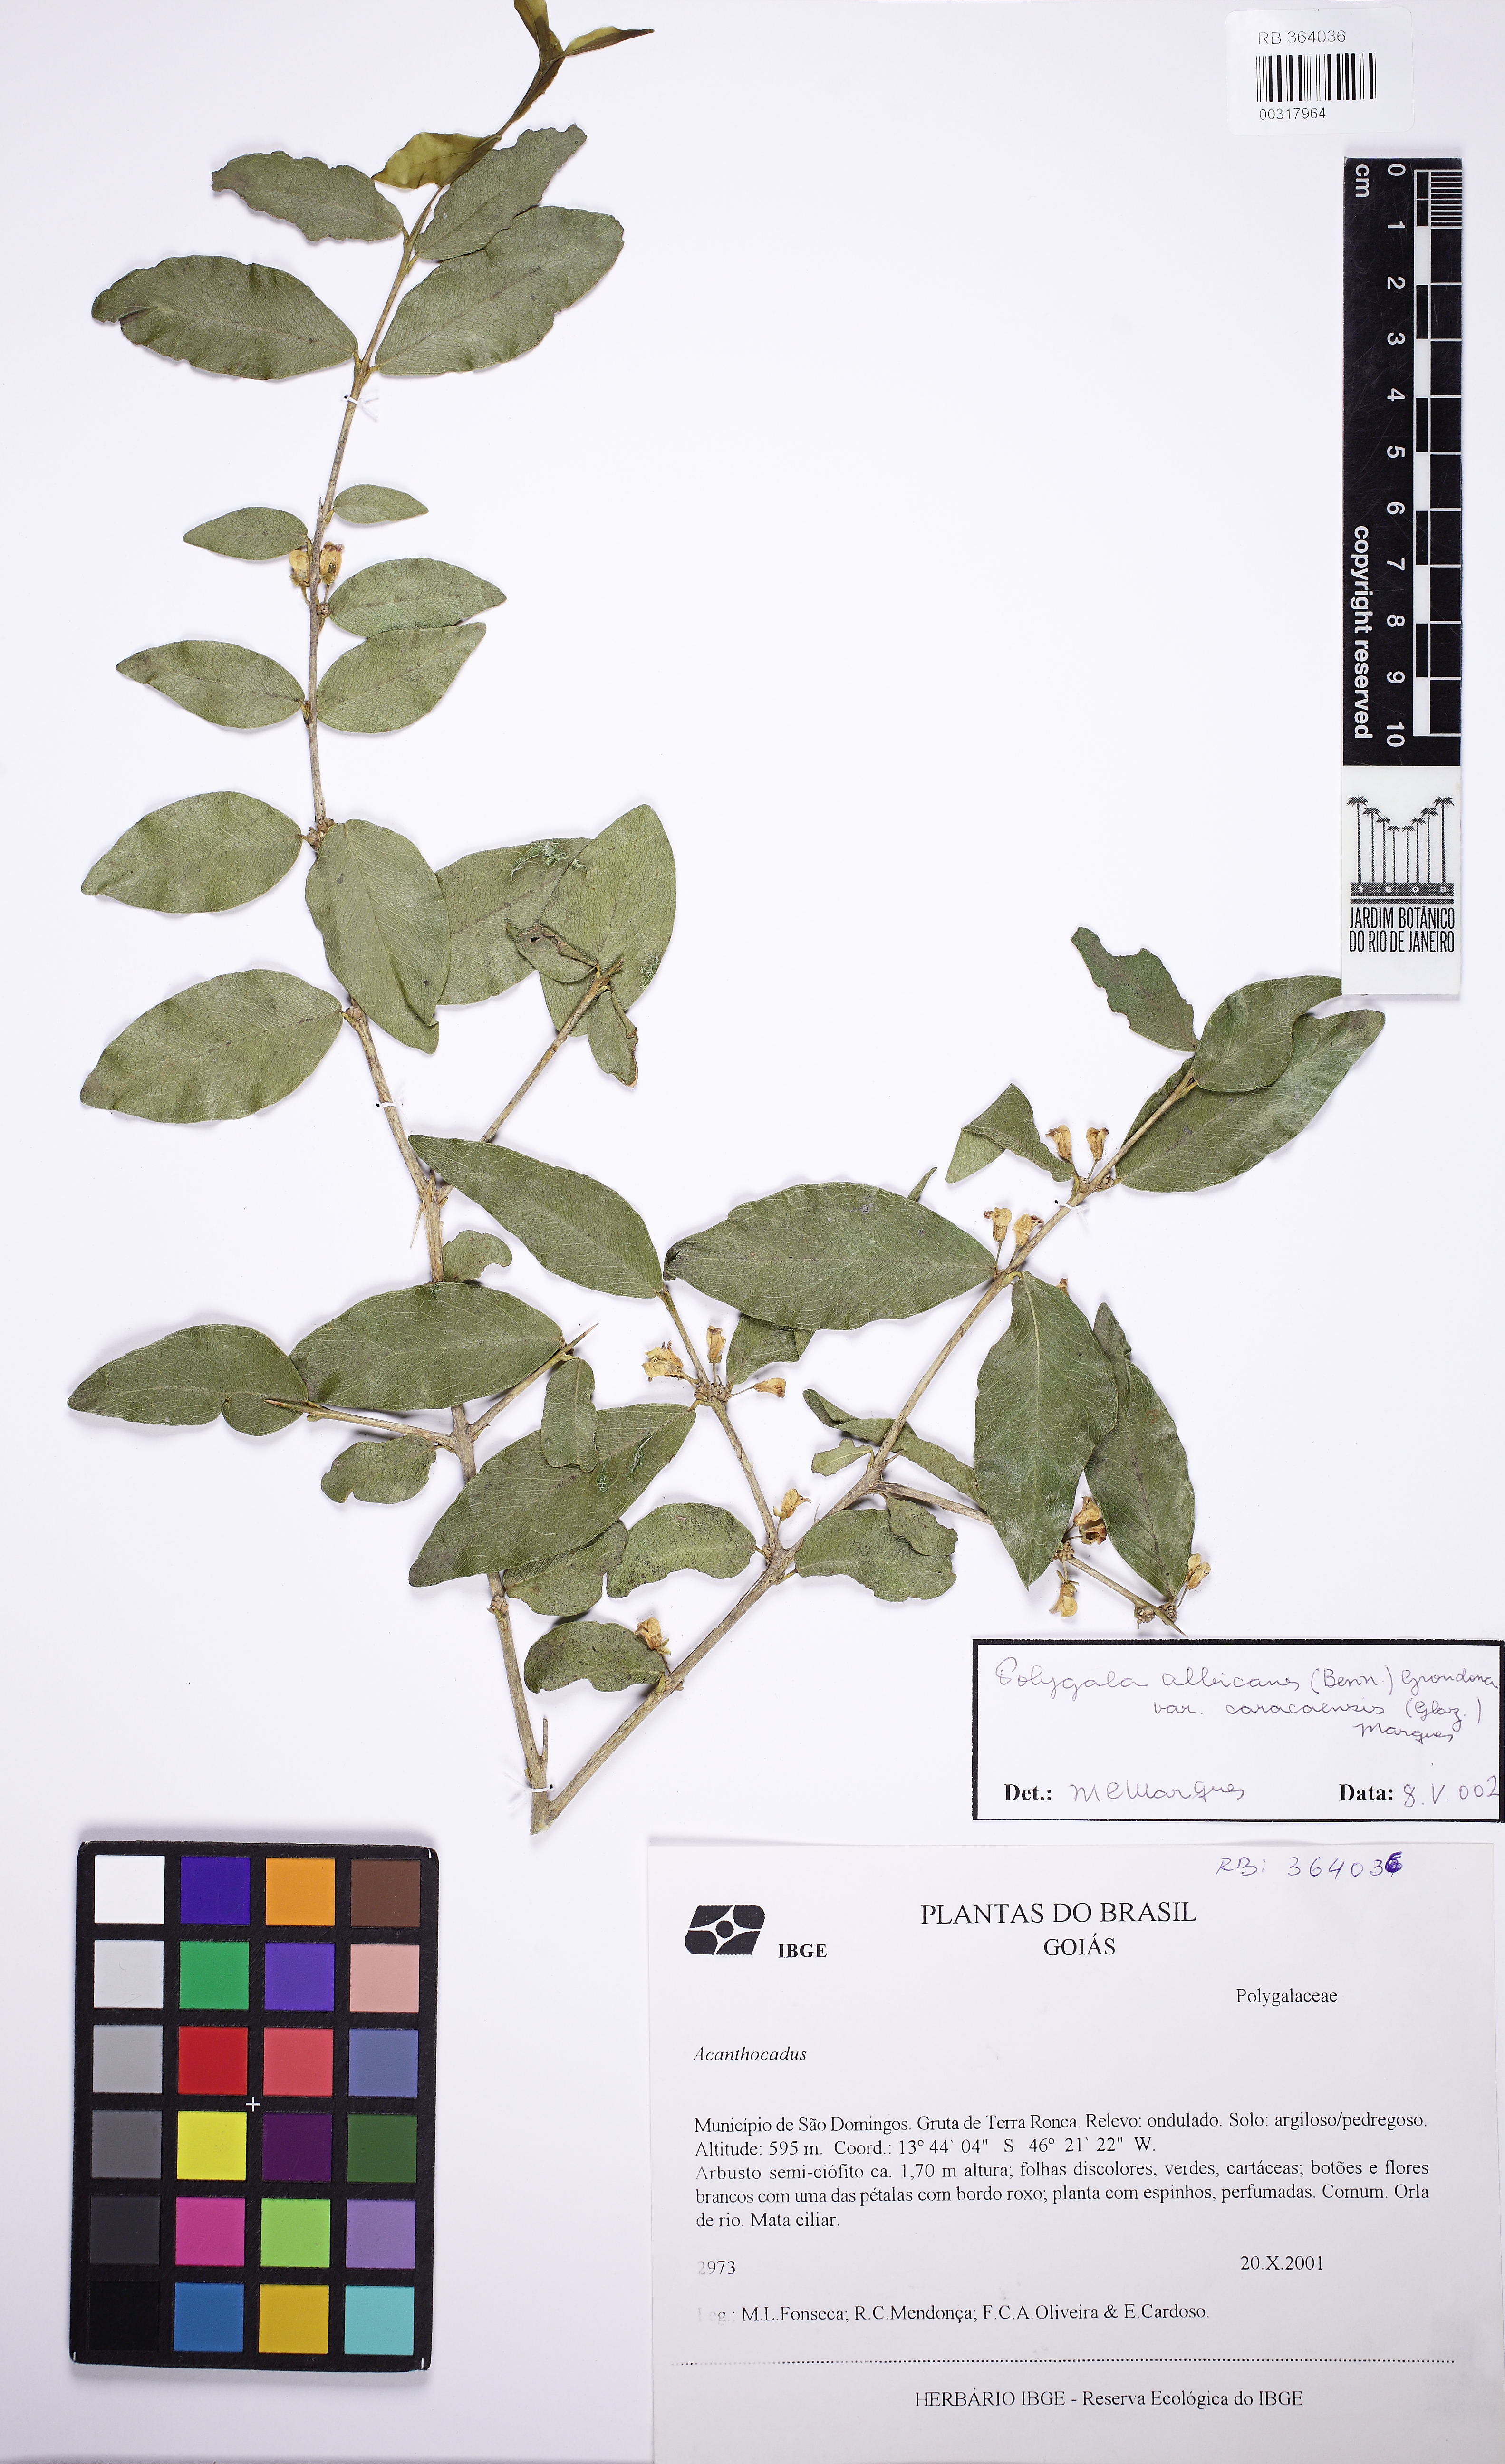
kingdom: Plantae
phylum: Tracheophyta
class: Magnoliopsida
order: Fabales
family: Polygalaceae
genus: Acanthocladus
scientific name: Acanthocladus dichromus
